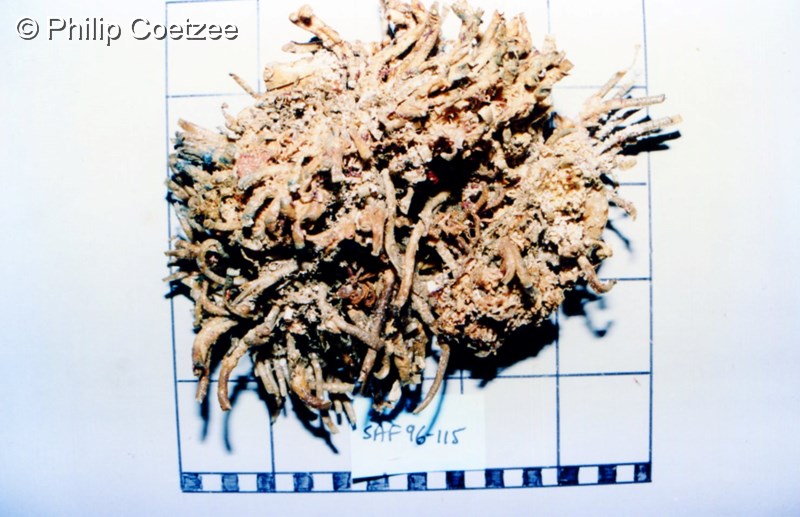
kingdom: Animalia
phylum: Annelida
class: Polychaeta
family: Terebellidae
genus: Thelepus
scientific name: Thelepus
